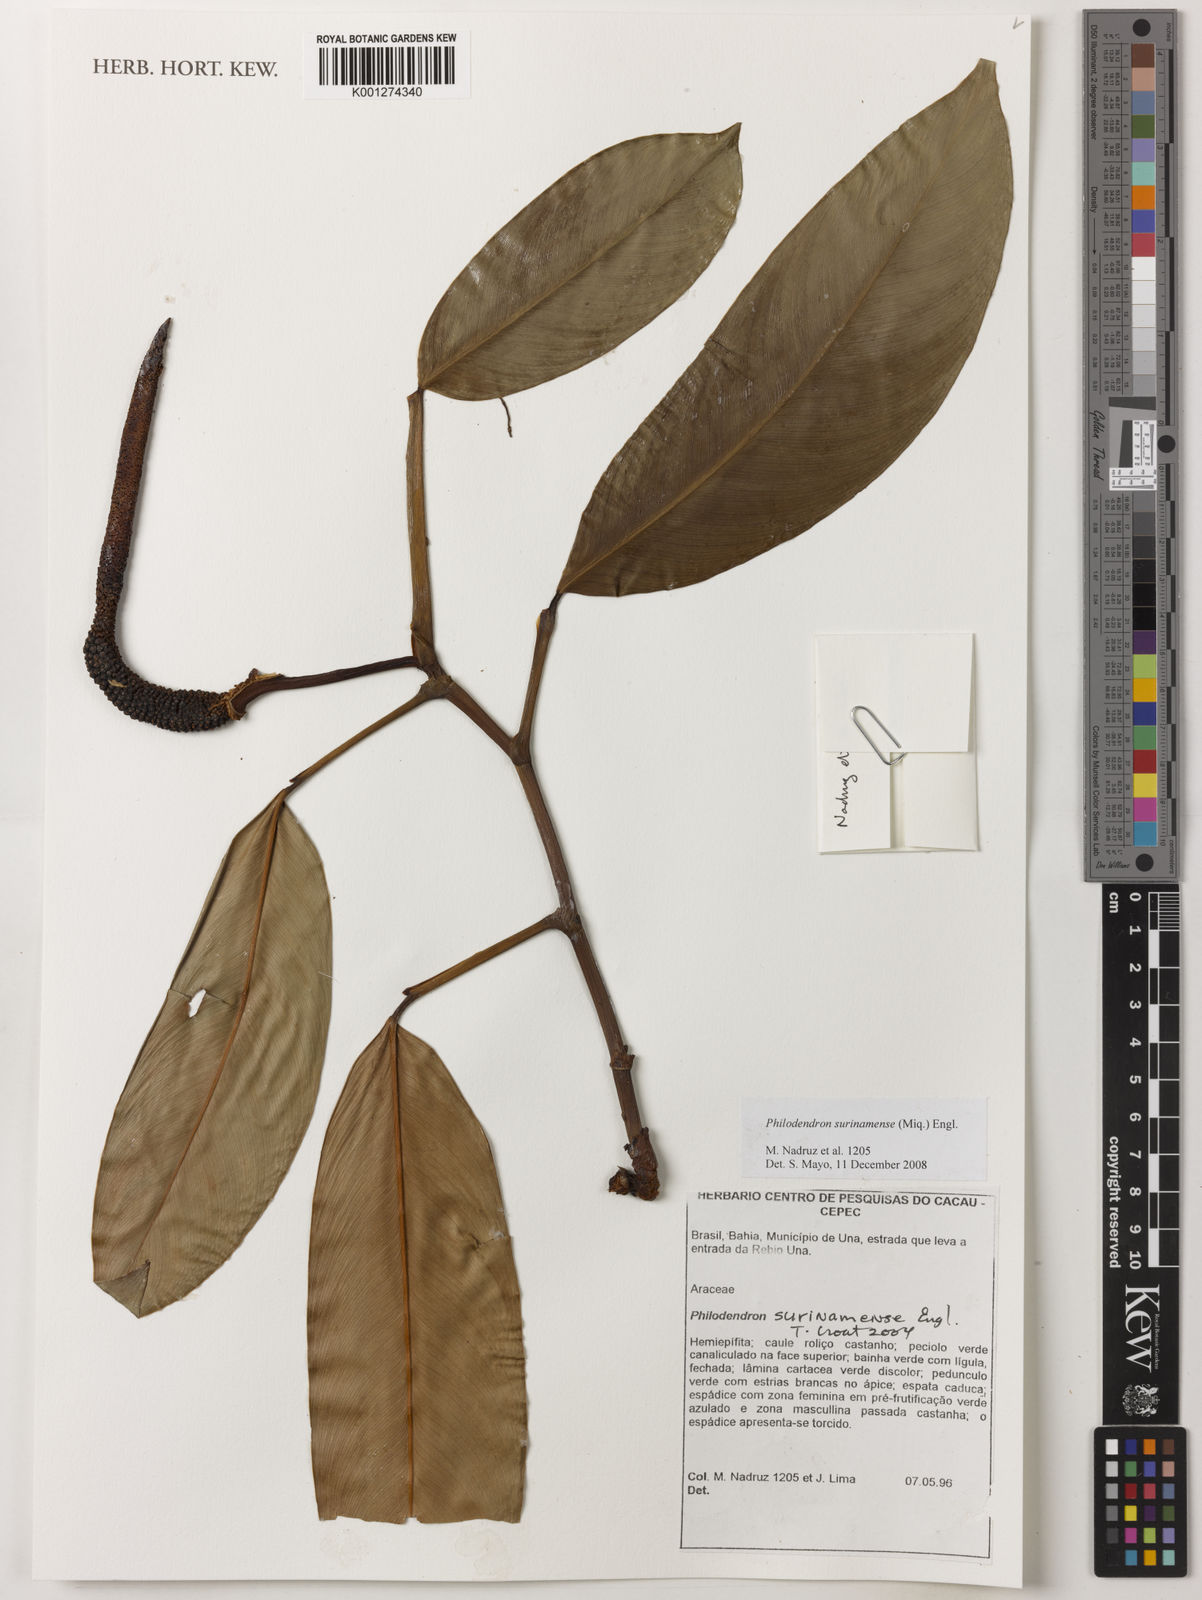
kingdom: Plantae
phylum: Tracheophyta
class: Liliopsida
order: Alismatales
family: Araceae
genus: Philodendron
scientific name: Philodendron surinamense
